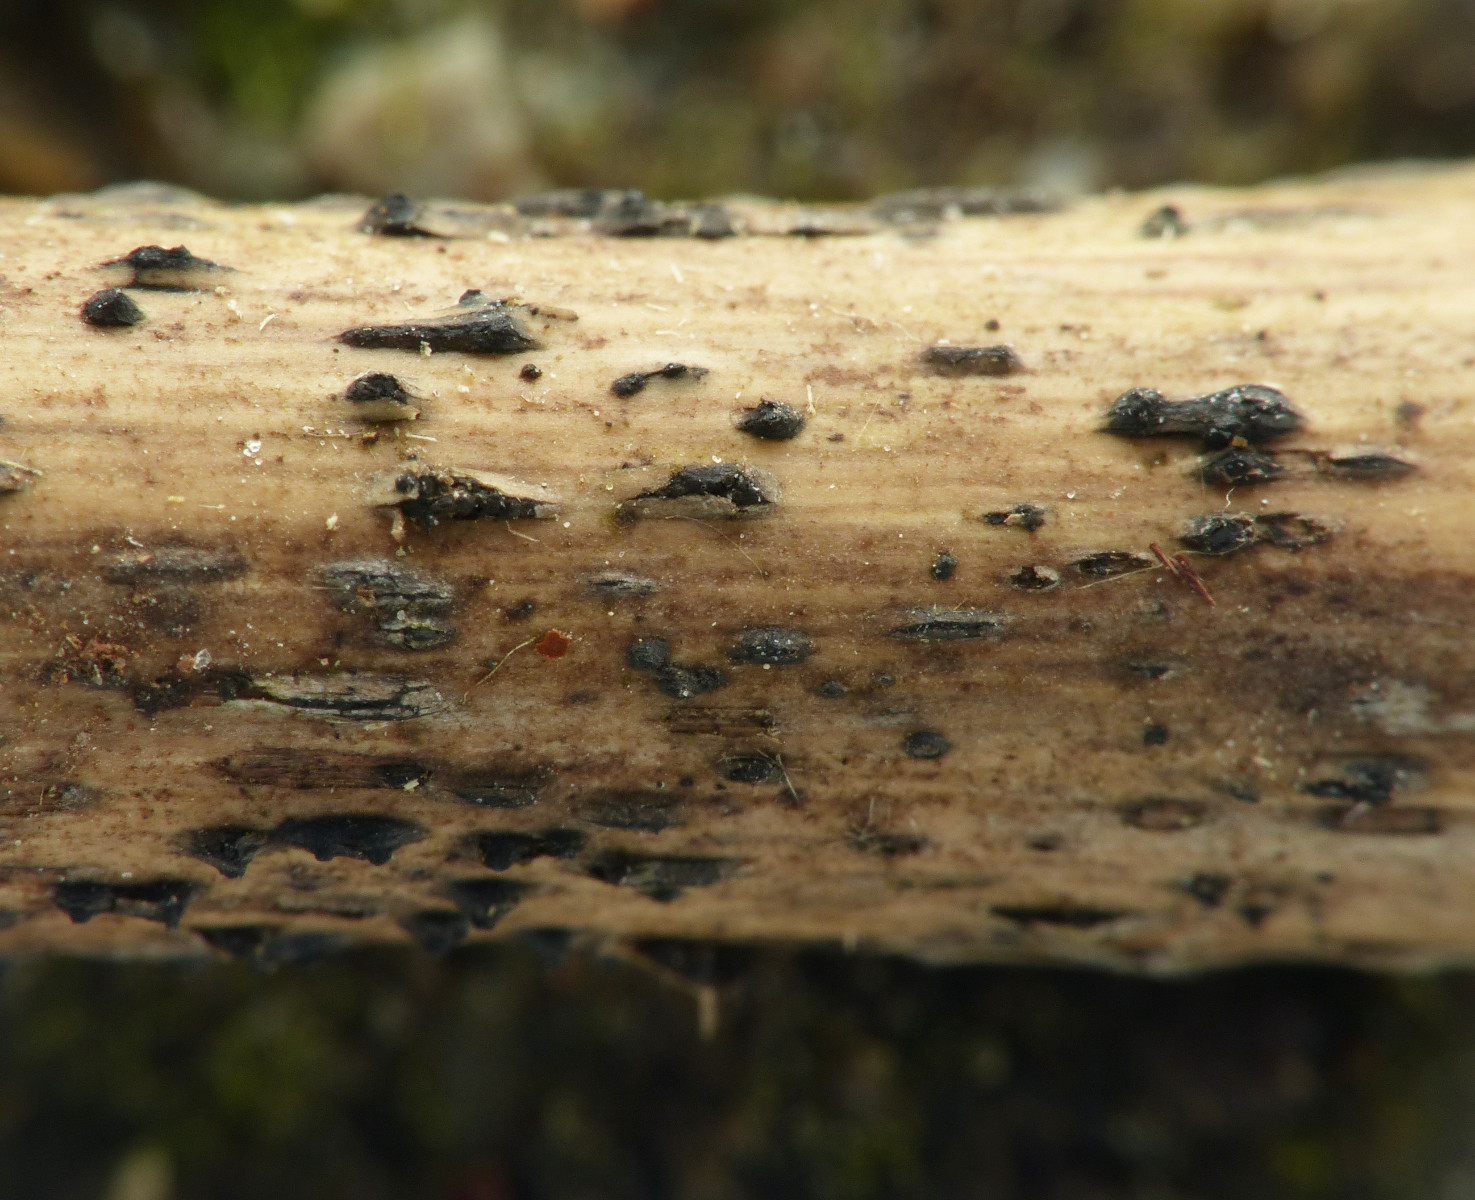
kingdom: Fungi
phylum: Ascomycota
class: Dothideomycetes
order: Pleosporales
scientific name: Pleosporales
